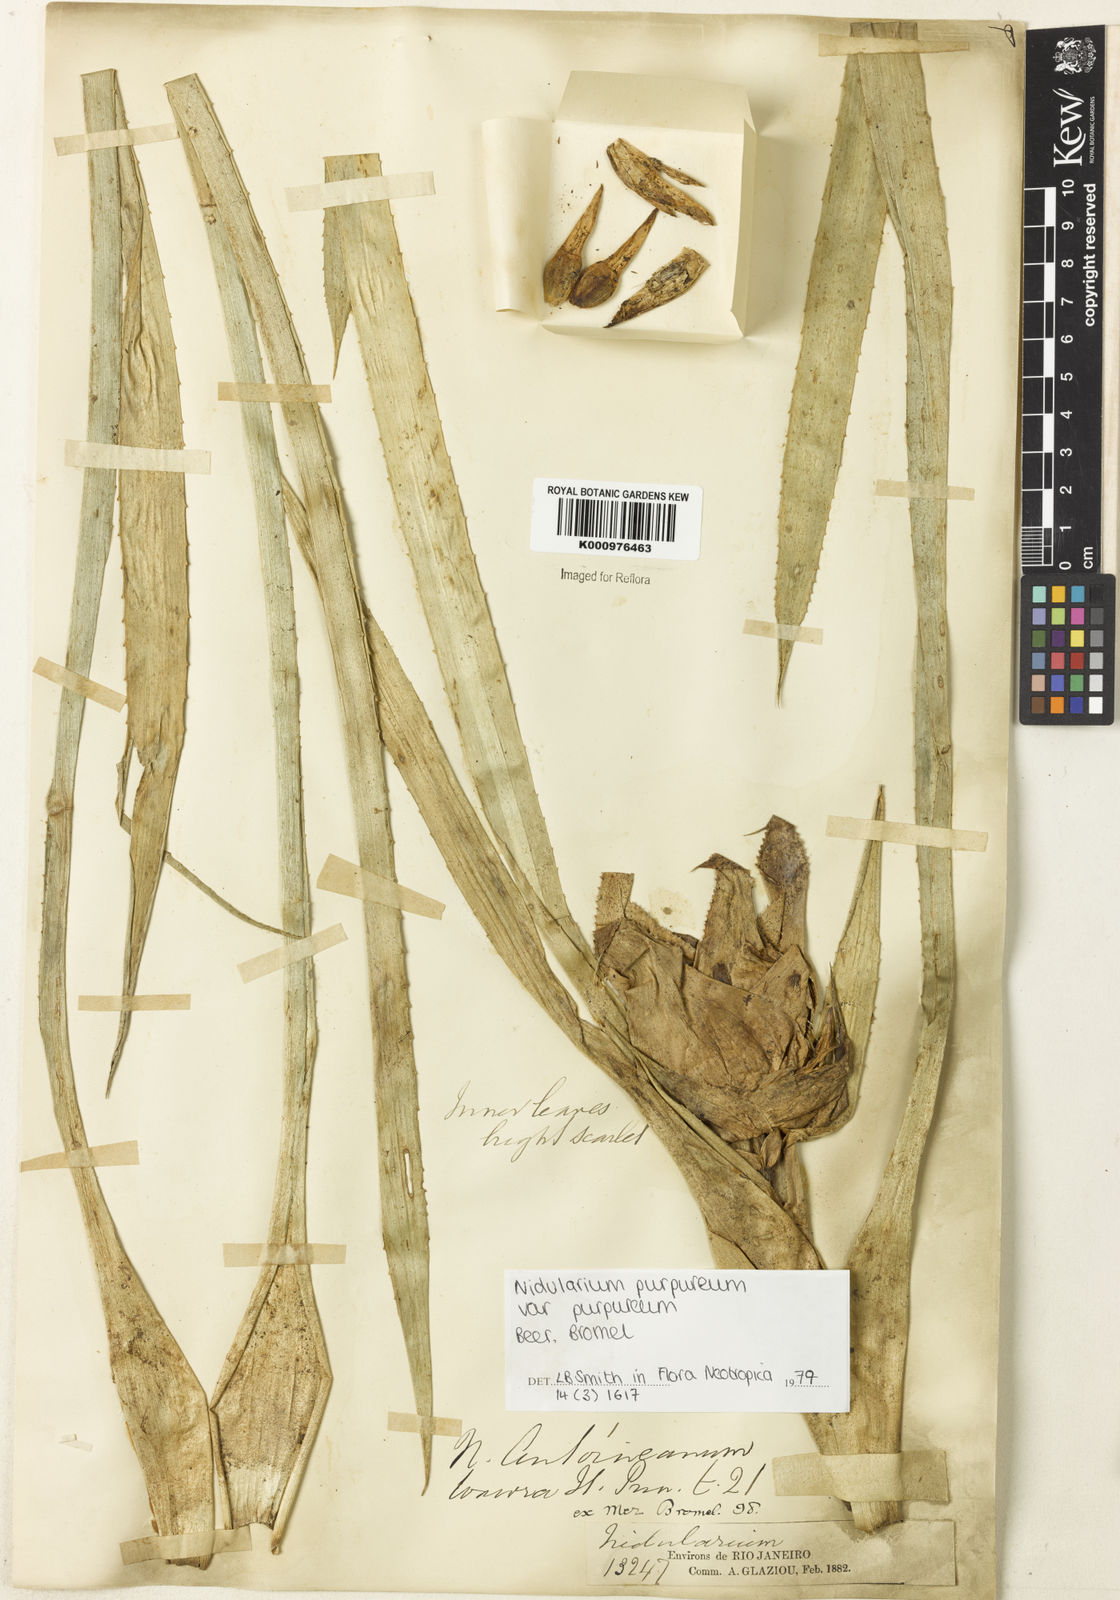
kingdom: Plantae
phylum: Tracheophyta
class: Liliopsida
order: Poales
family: Bromeliaceae
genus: Nidularium
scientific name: Nidularium purpureum
